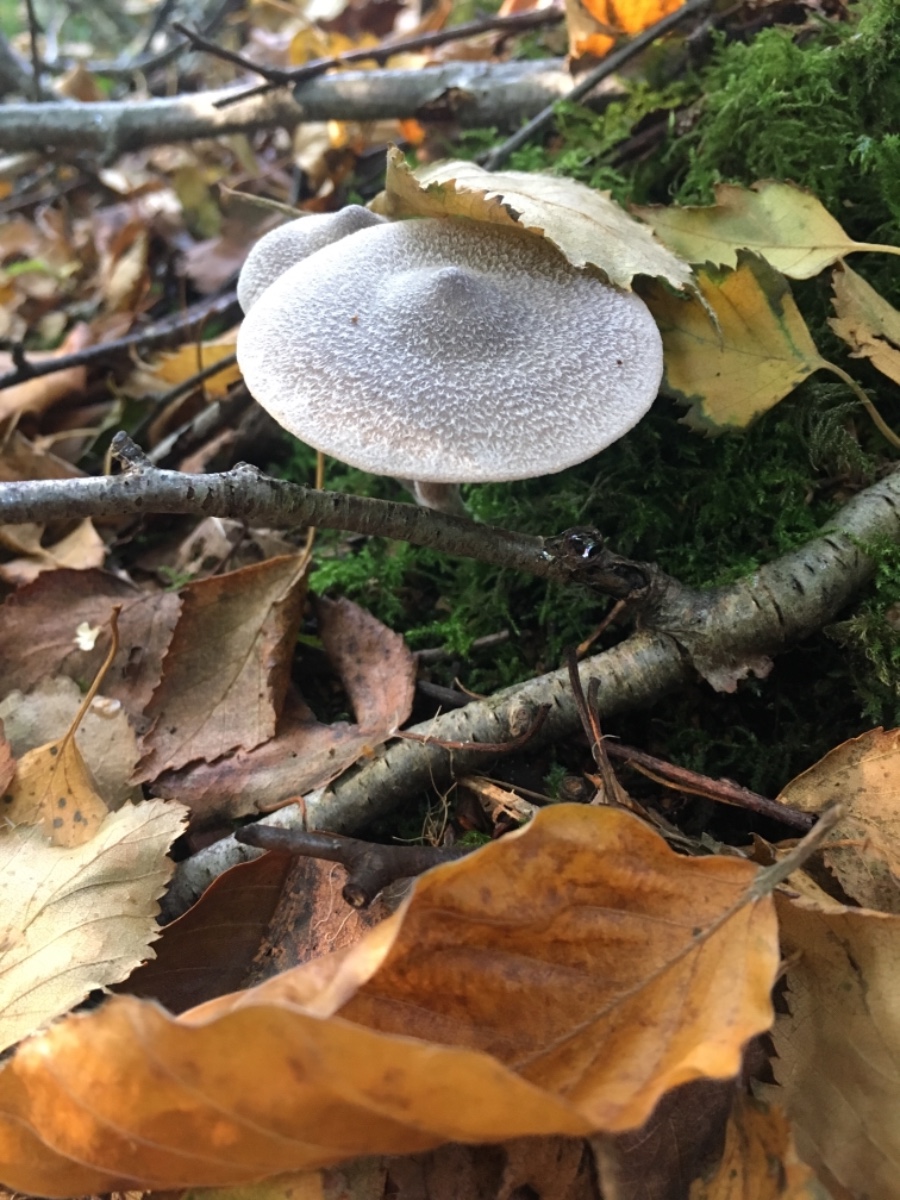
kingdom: Fungi
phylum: Basidiomycota
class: Agaricomycetes
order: Agaricales
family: Cortinariaceae
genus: Cortinarius
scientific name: Cortinarius hemitrichus
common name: hvidfnugget slørhat
